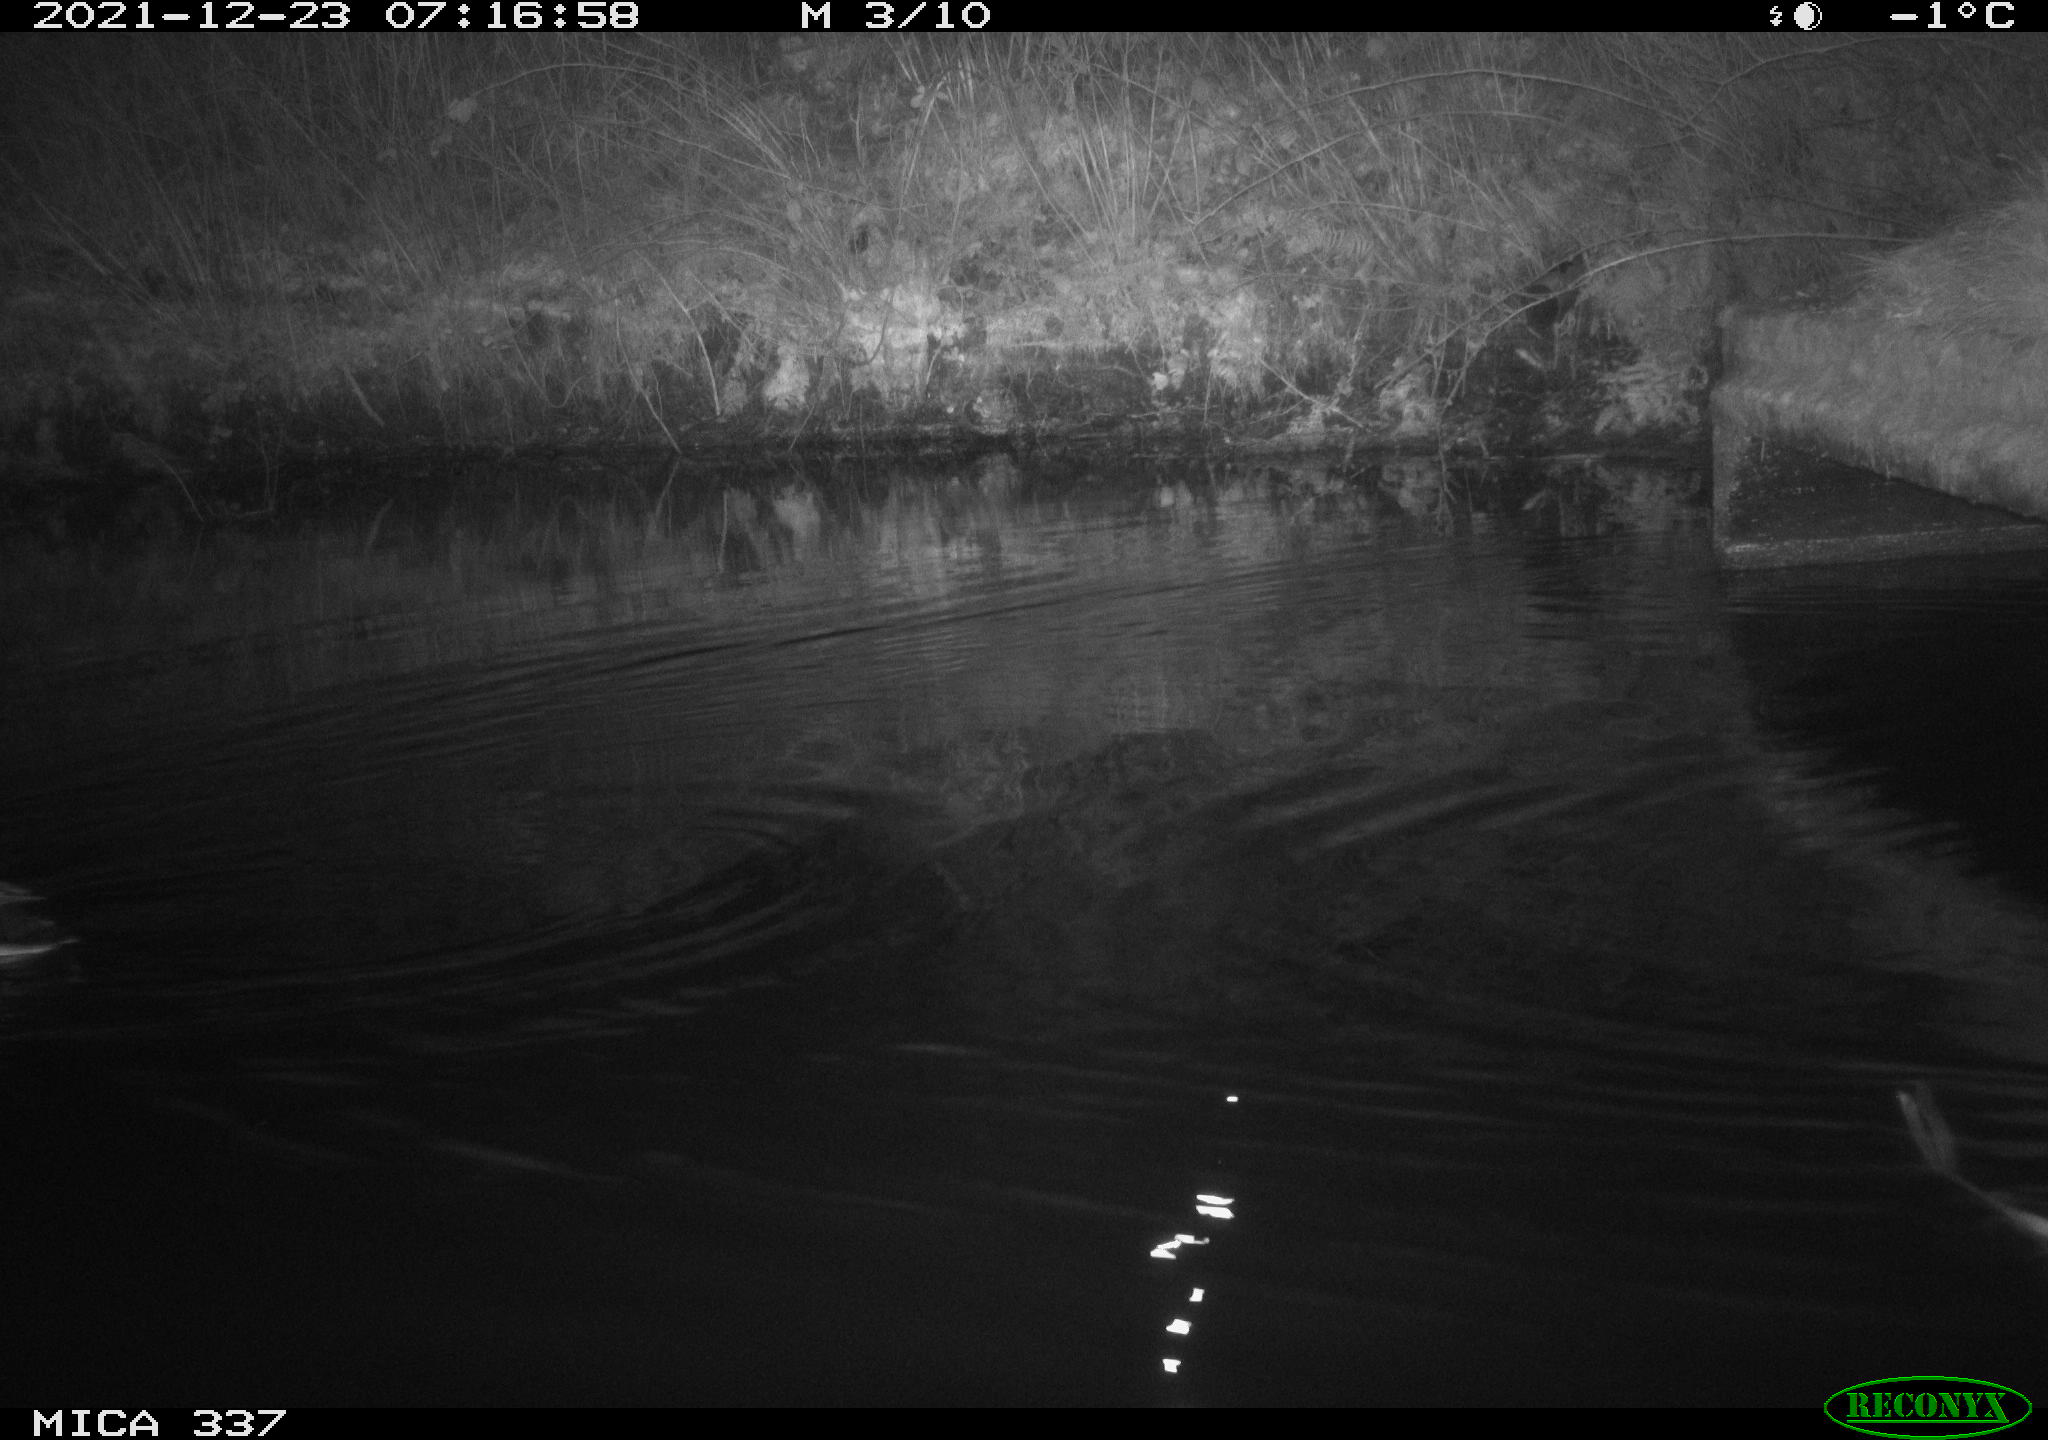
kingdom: Animalia
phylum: Chordata
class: Aves
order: Anseriformes
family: Anatidae
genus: Anas
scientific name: Anas platyrhynchos
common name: Mallard
